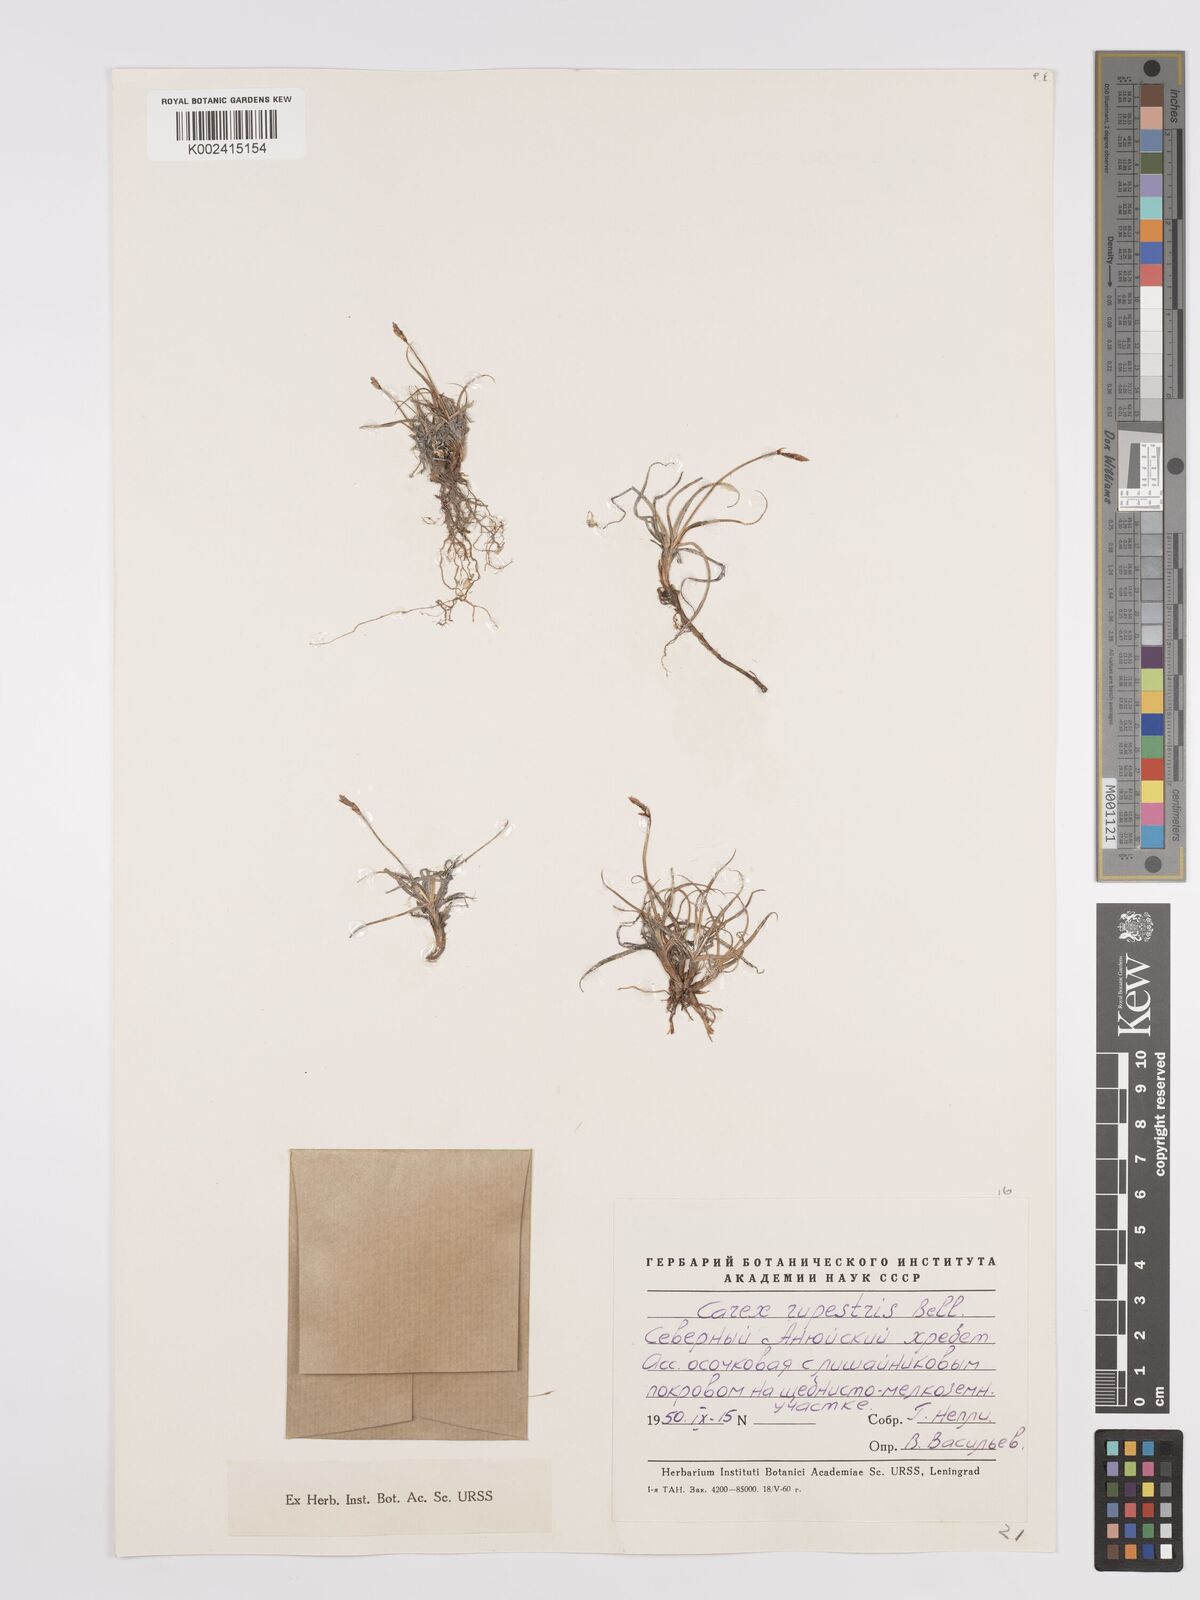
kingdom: Plantae
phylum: Tracheophyta
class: Liliopsida
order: Poales
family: Cyperaceae
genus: Carex
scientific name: Carex rupestris
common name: Rock sedge
